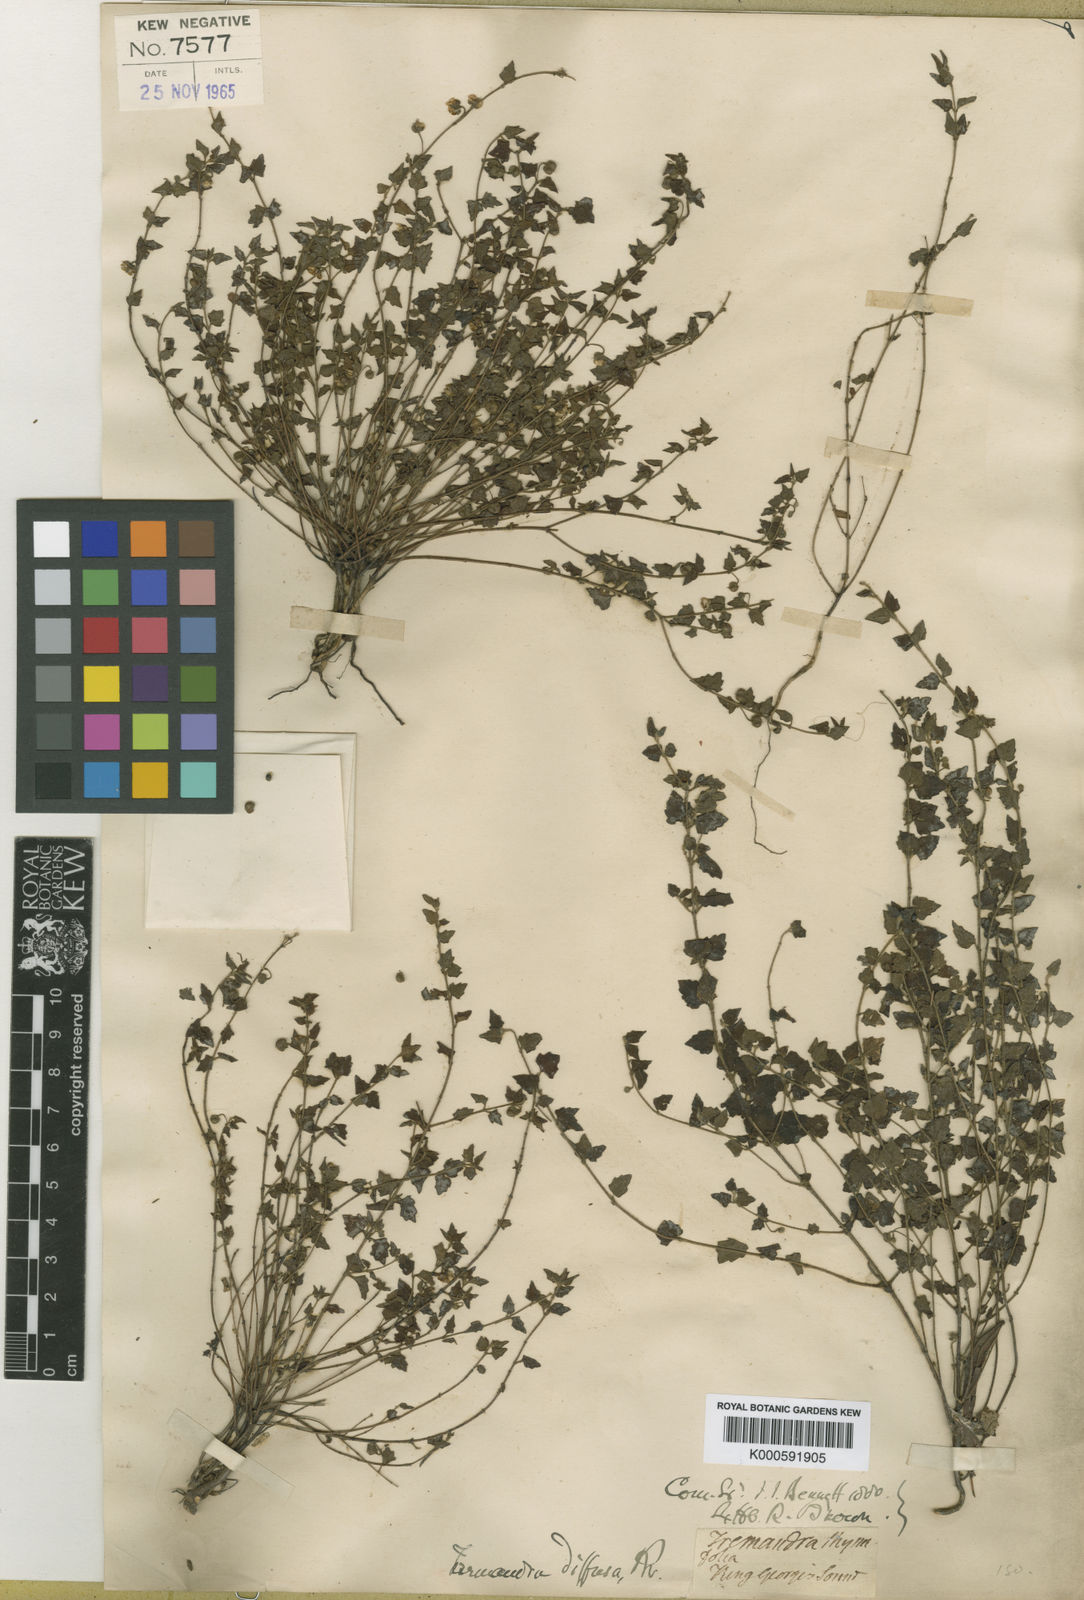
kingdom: Plantae
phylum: Tracheophyta
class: Magnoliopsida
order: Oxalidales
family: Elaeocarpaceae
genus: Tremandra
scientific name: Tremandra diffusa
